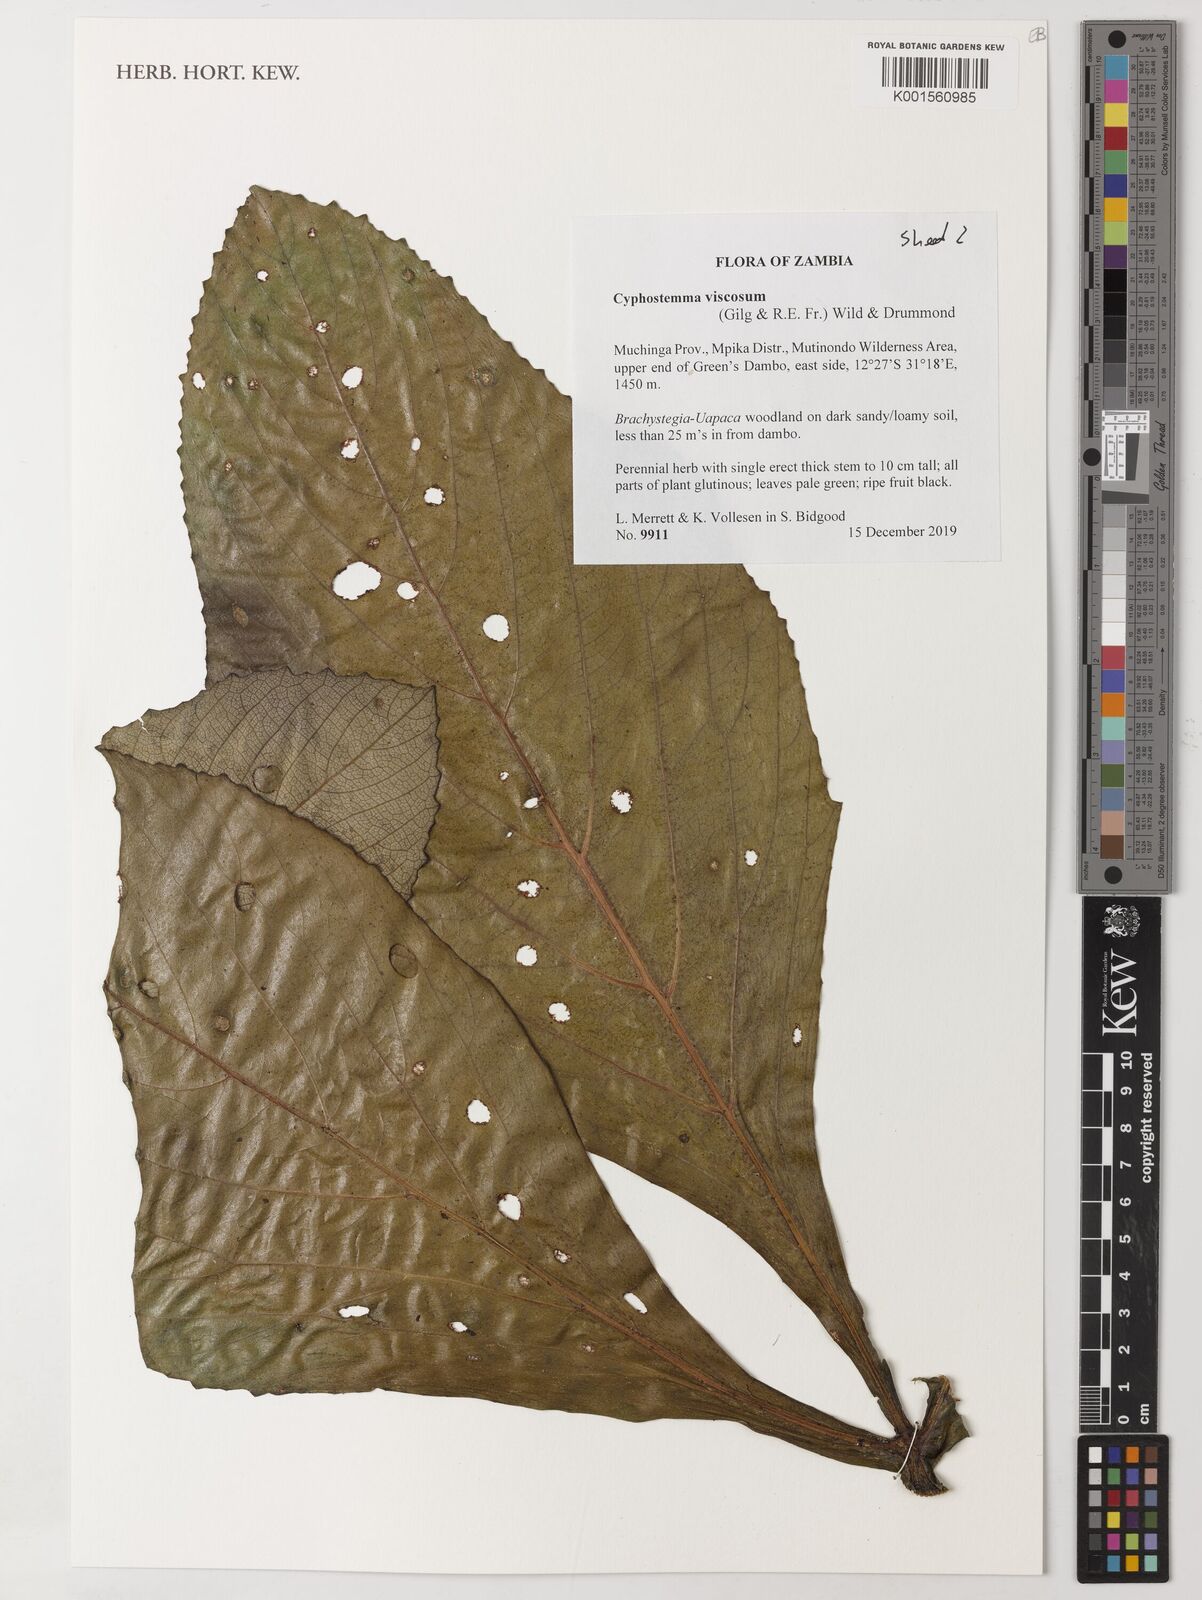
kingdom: Plantae
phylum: Tracheophyta
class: Magnoliopsida
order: Vitales
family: Vitaceae
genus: Cyphostemma
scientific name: Cyphostemma viscosum
